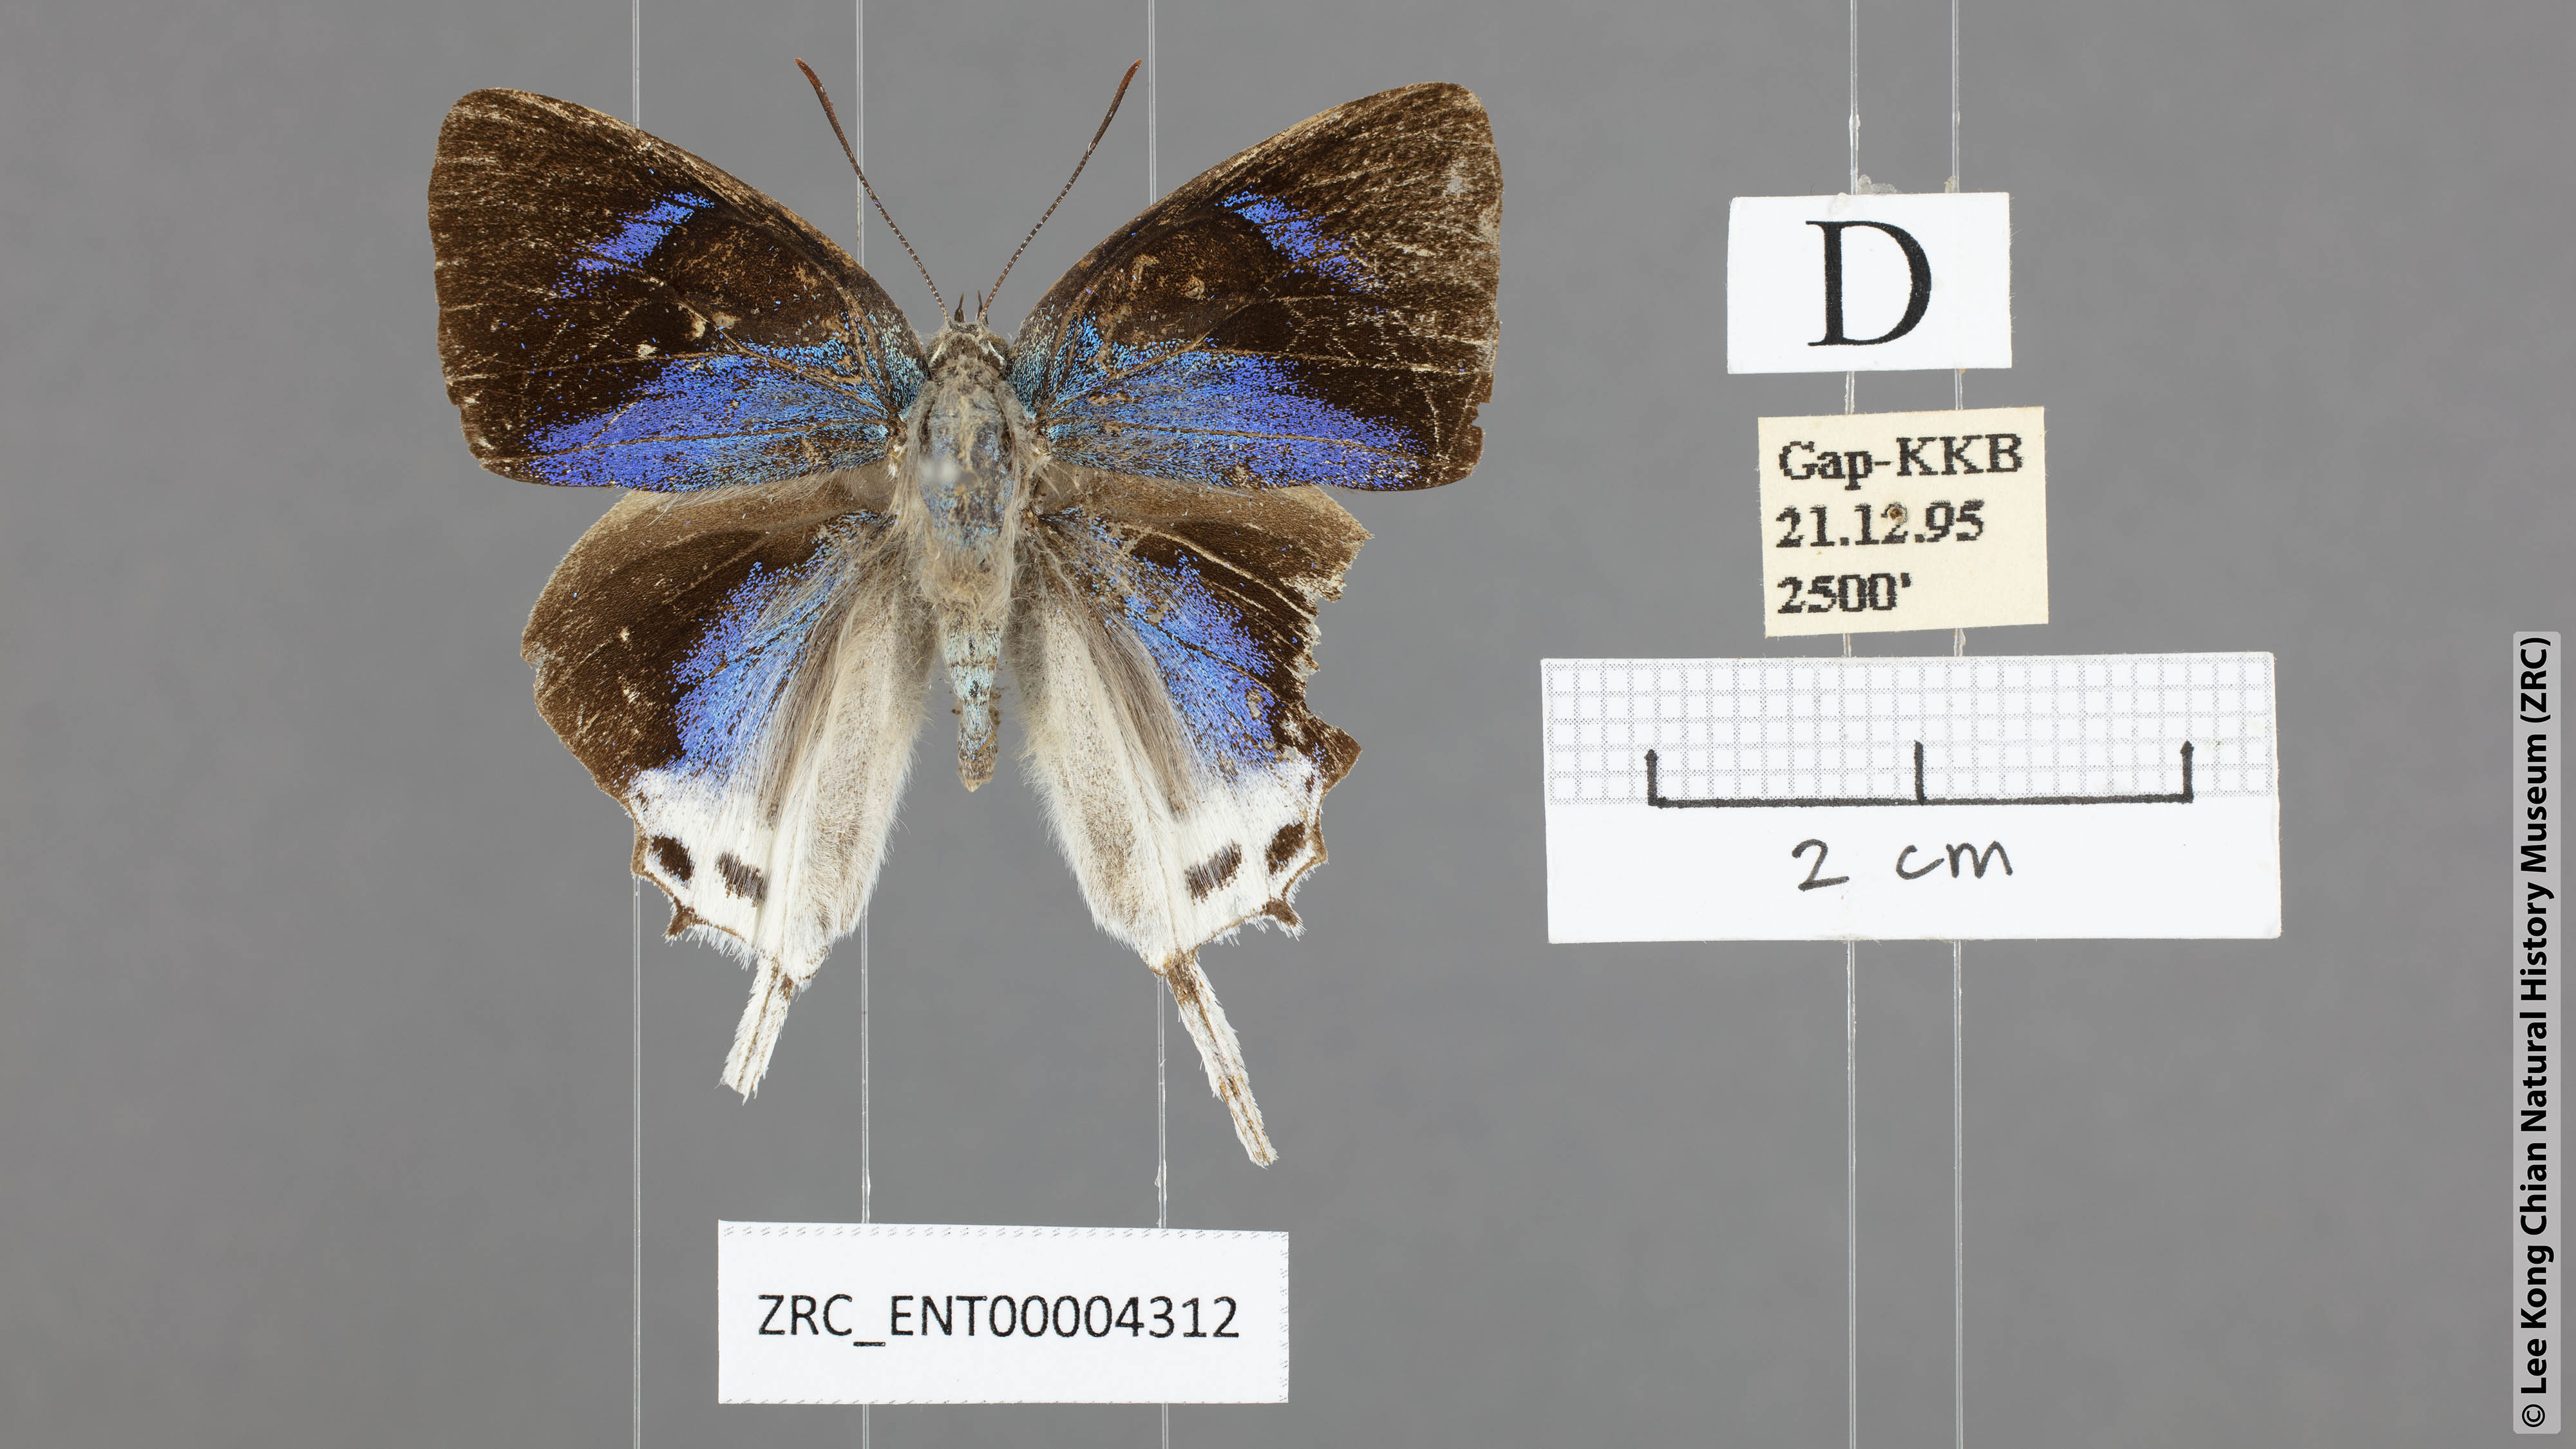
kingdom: Animalia
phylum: Arthropoda
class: Insecta
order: Lepidoptera
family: Lycaenidae
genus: Jacoona
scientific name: Jacoona anasuja
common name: Great imperial
